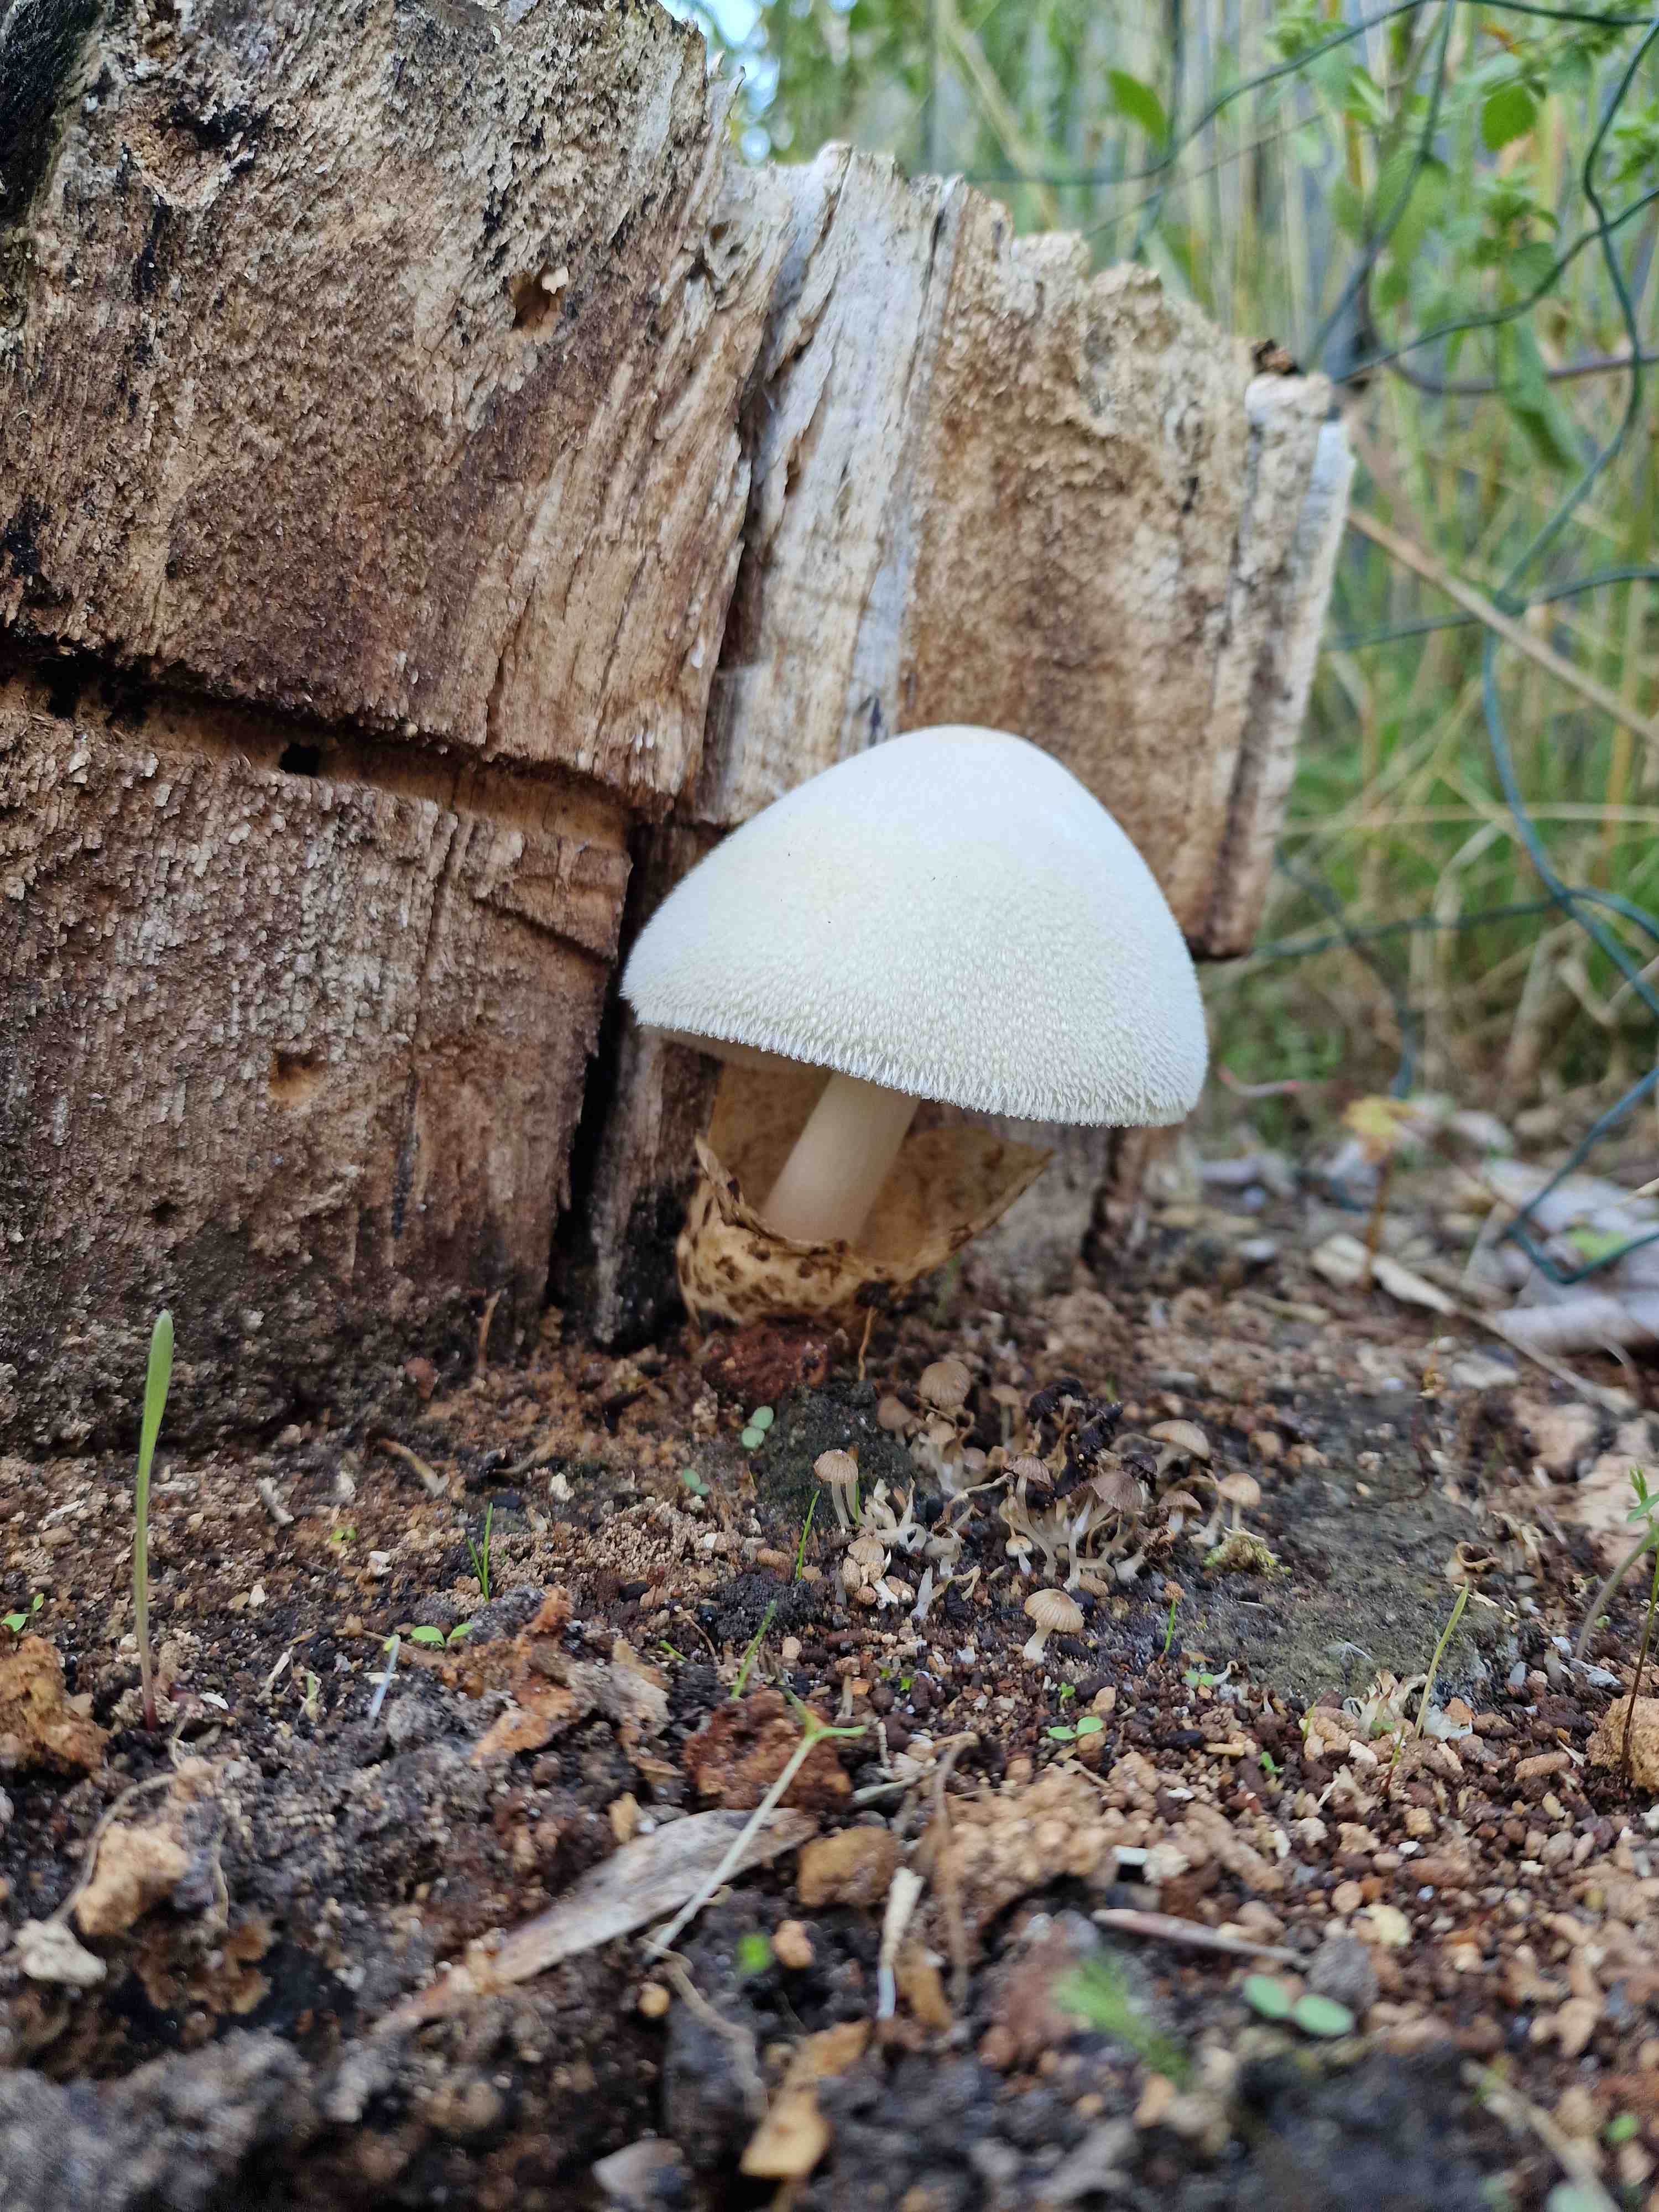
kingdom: Fungi
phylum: Basidiomycota
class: Agaricomycetes
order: Agaricales
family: Pluteaceae
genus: Volvariella
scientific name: Volvariella bombycina
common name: silkehåret posesvamp
